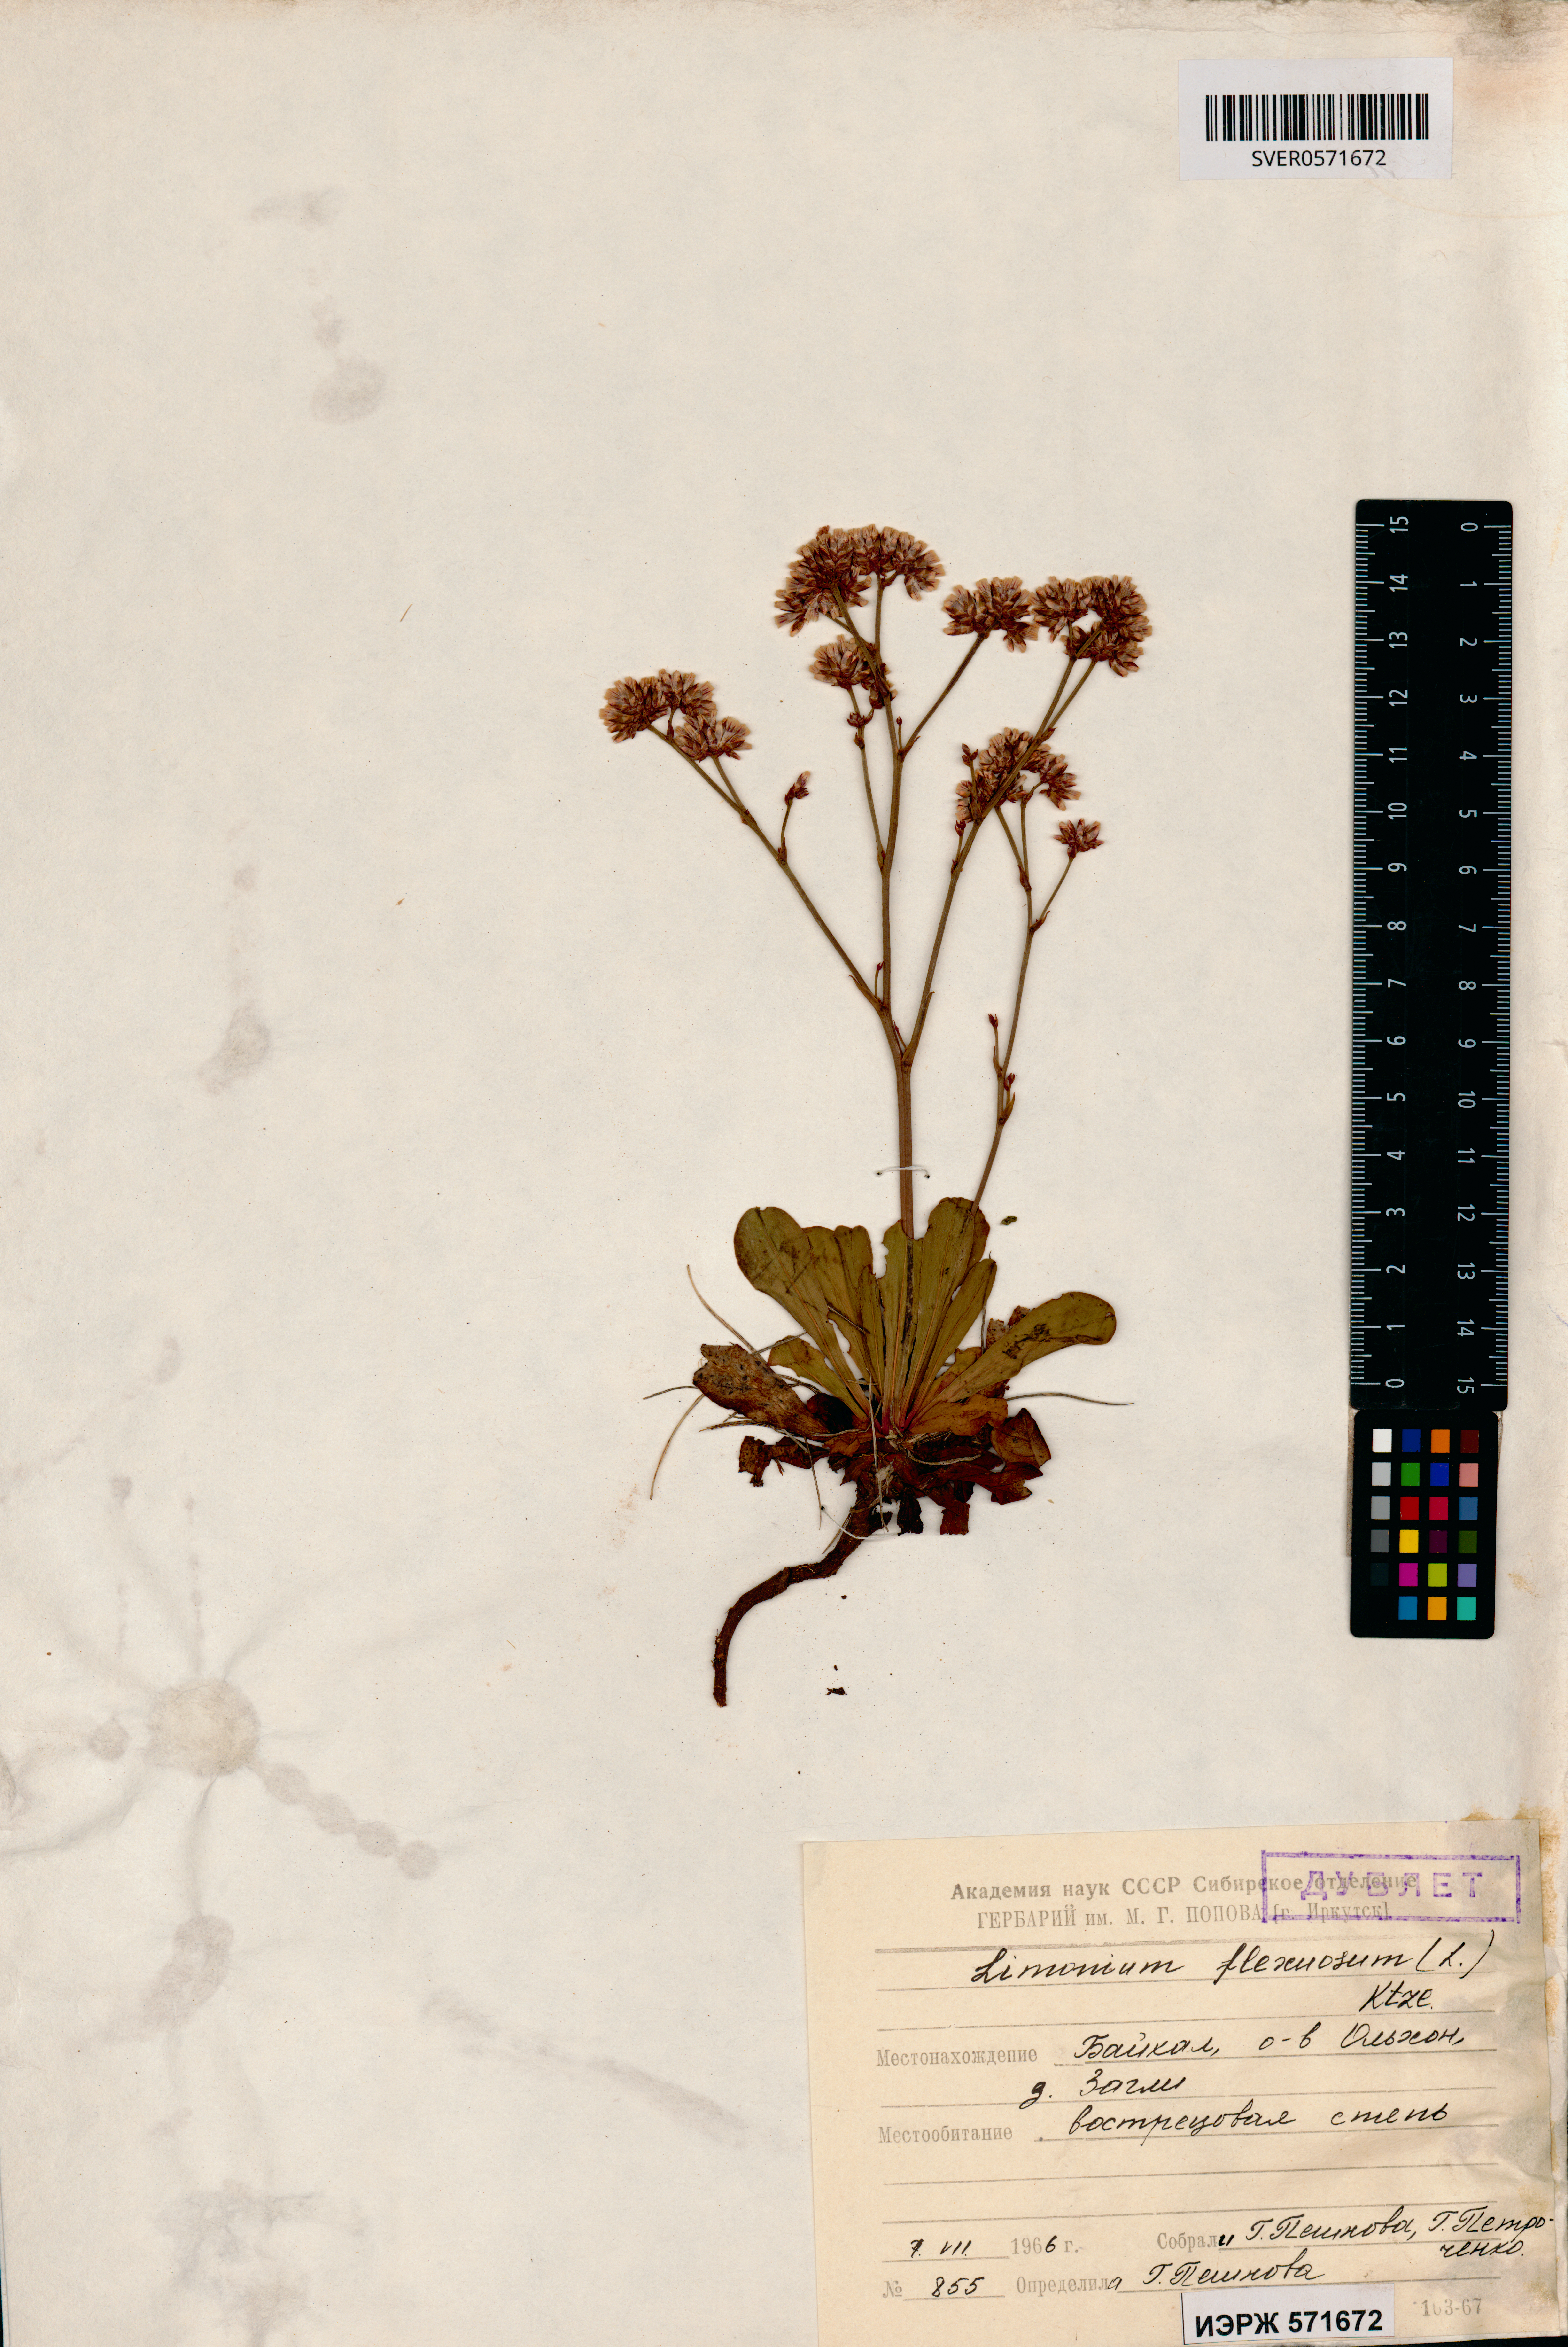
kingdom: Plantae
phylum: Tracheophyta
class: Magnoliopsida
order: Caryophyllales
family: Plumbaginaceae
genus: Limonium
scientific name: Limonium flexuosum
